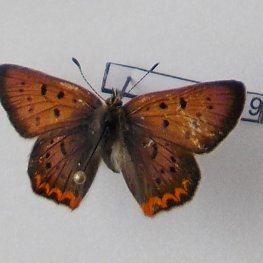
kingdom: Animalia
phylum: Arthropoda
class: Insecta
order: Lepidoptera
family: Sesiidae
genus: Sesia
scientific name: Sesia Lycaena helloides
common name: Purplish Copper
